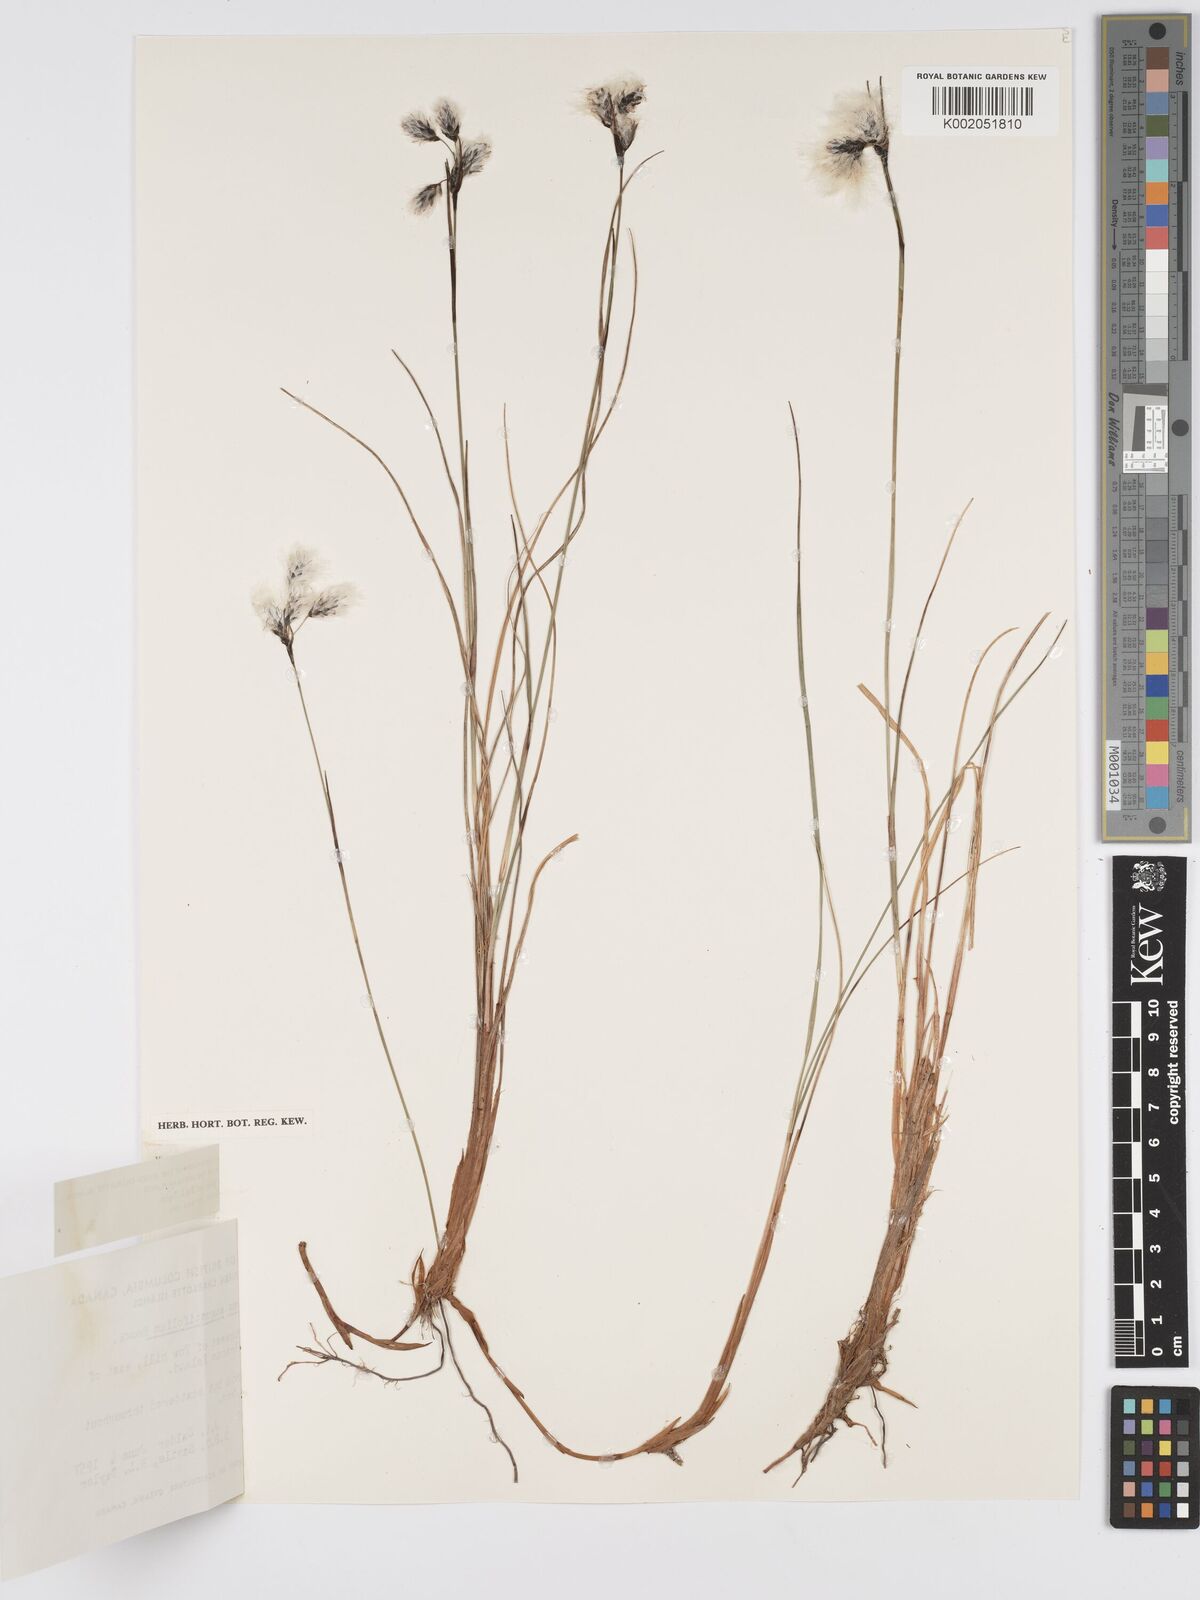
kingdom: Plantae
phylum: Tracheophyta
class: Liliopsida
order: Poales
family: Cyperaceae
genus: Eriophorum
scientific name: Eriophorum angustifolium
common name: Common cottongrass
